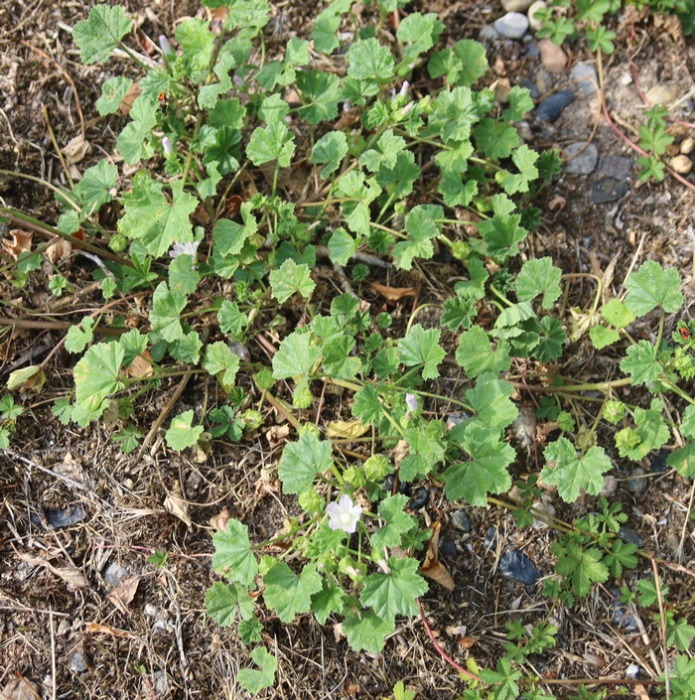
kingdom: Plantae
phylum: Tracheophyta
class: Magnoliopsida
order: Malvales
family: Malvaceae
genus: Malva
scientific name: Malva neglecta
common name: Rundbladet katost
